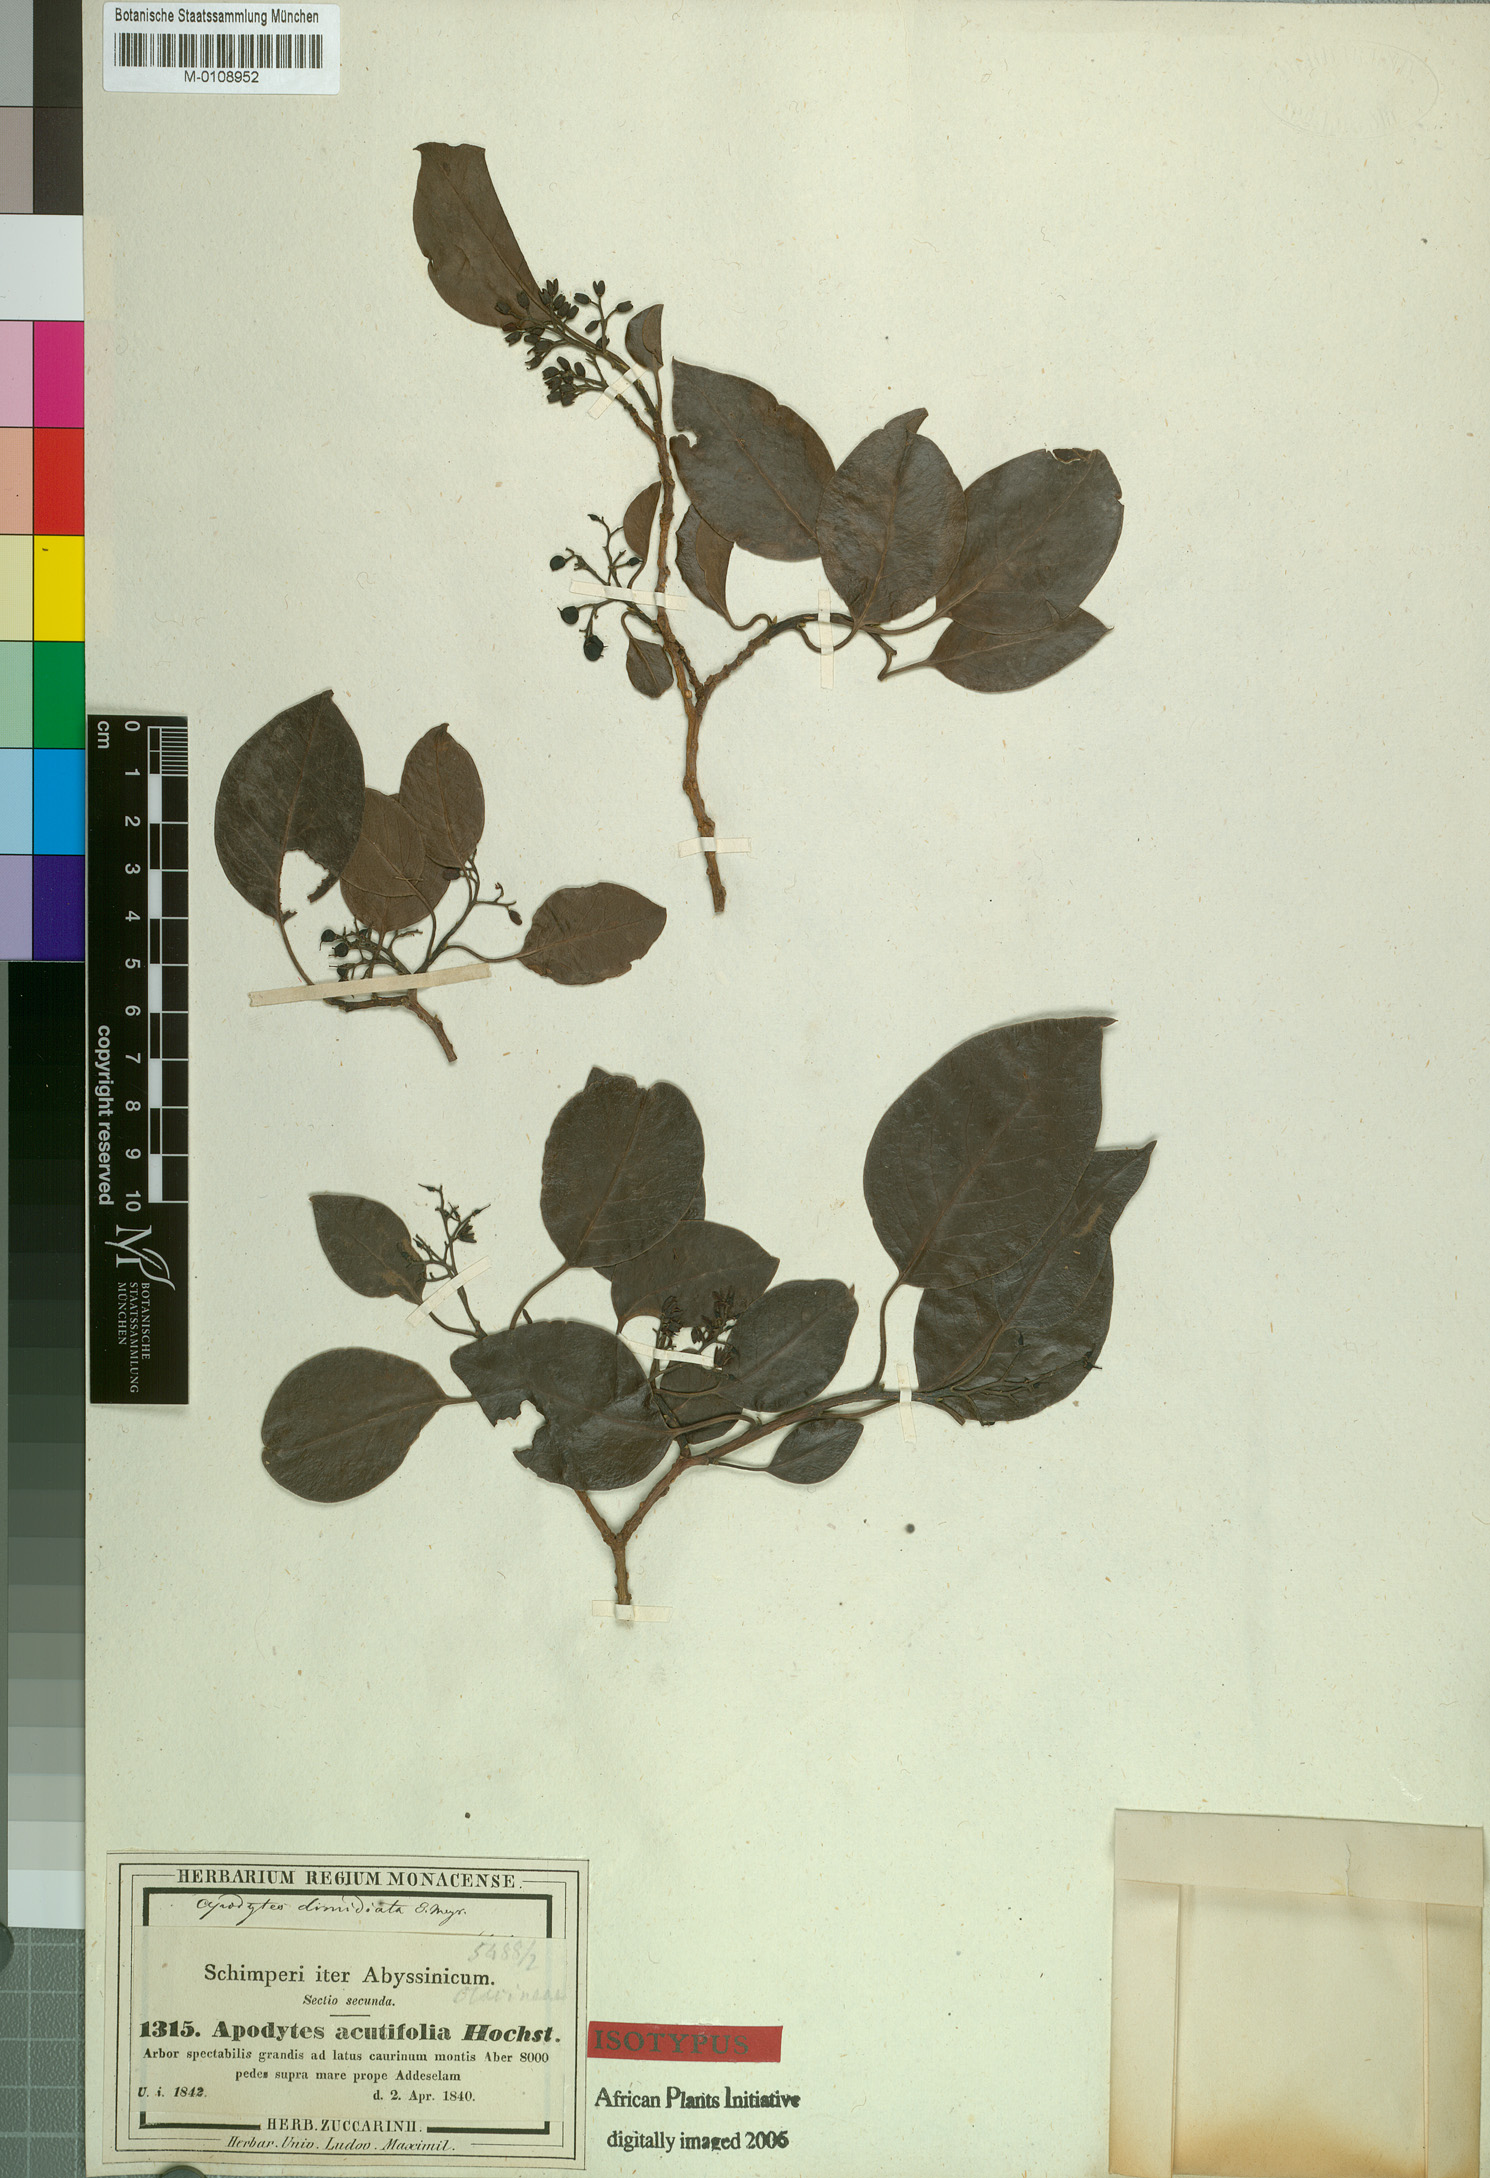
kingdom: Plantae
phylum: Tracheophyta
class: Magnoliopsida
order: Metteniusales
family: Metteniusaceae
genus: Apodytes
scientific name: Apodytes dimidiata
